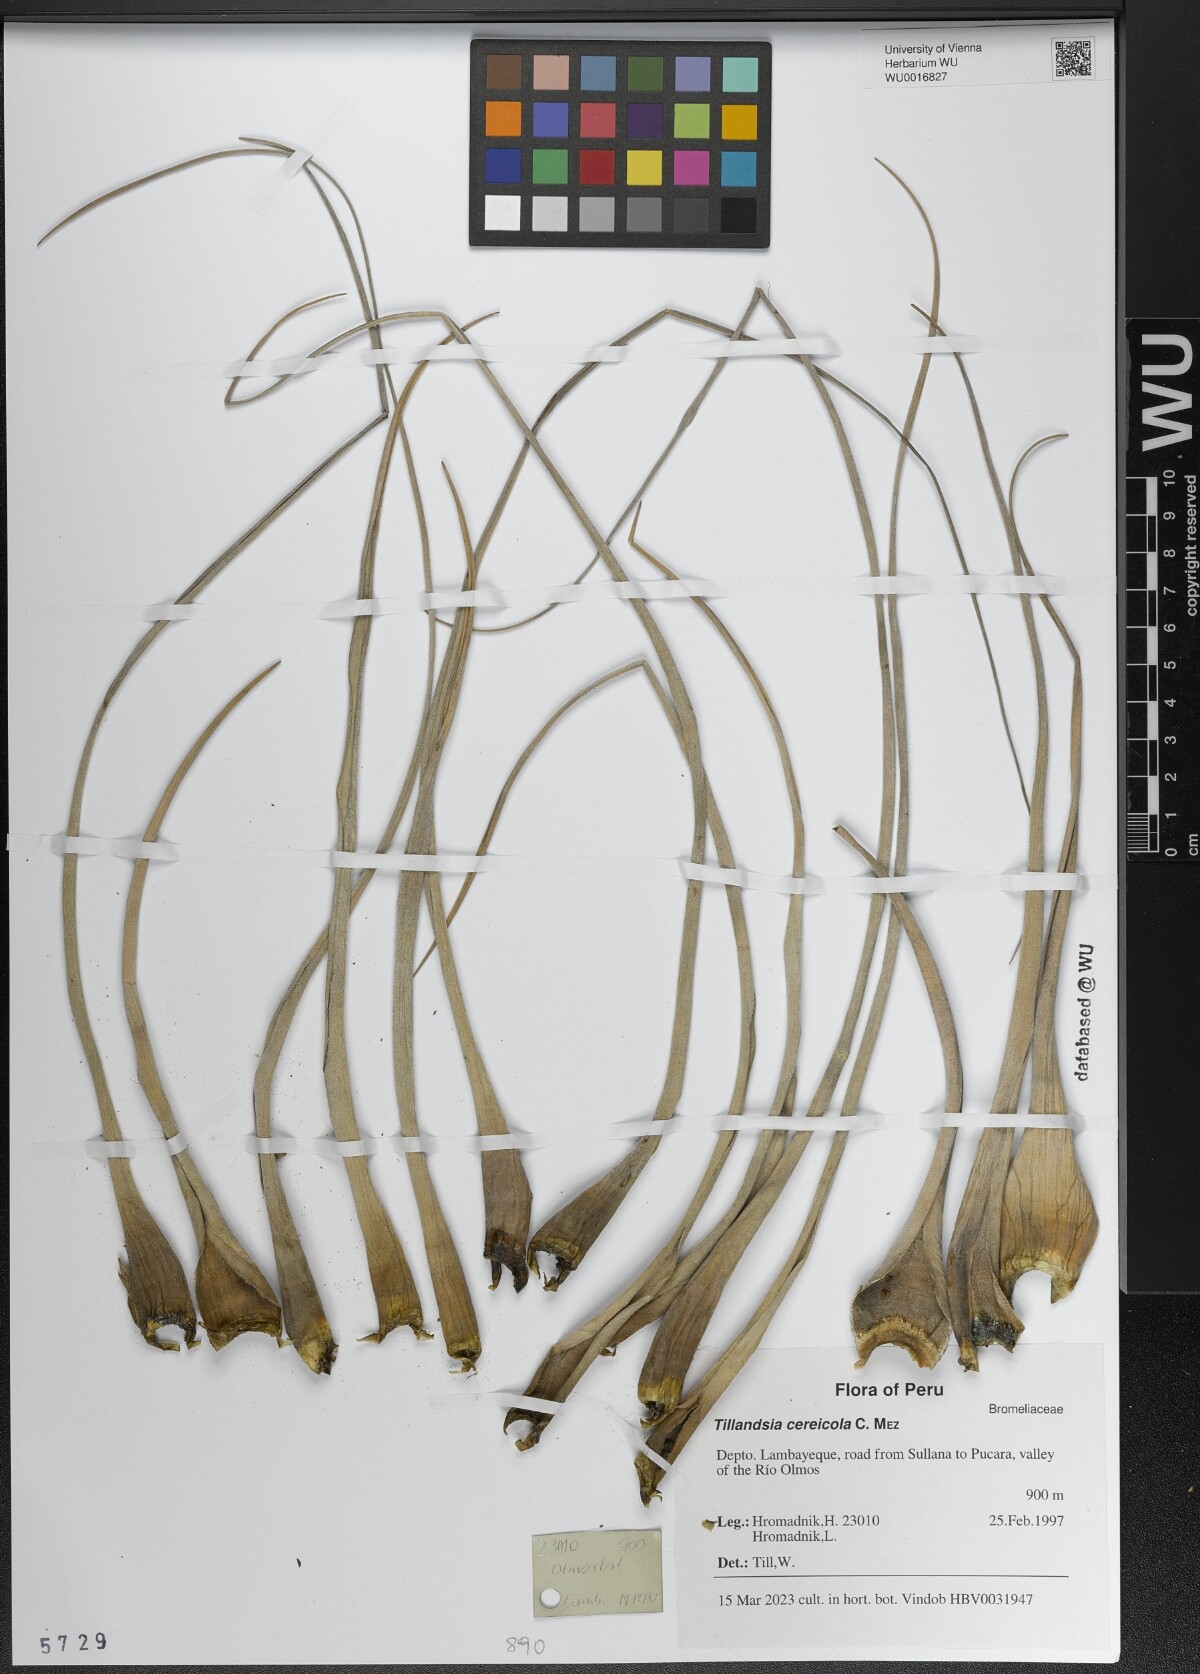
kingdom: Plantae
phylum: Tracheophyta
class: Liliopsida
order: Poales
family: Bromeliaceae
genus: Vriesea
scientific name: Vriesea cereicola
